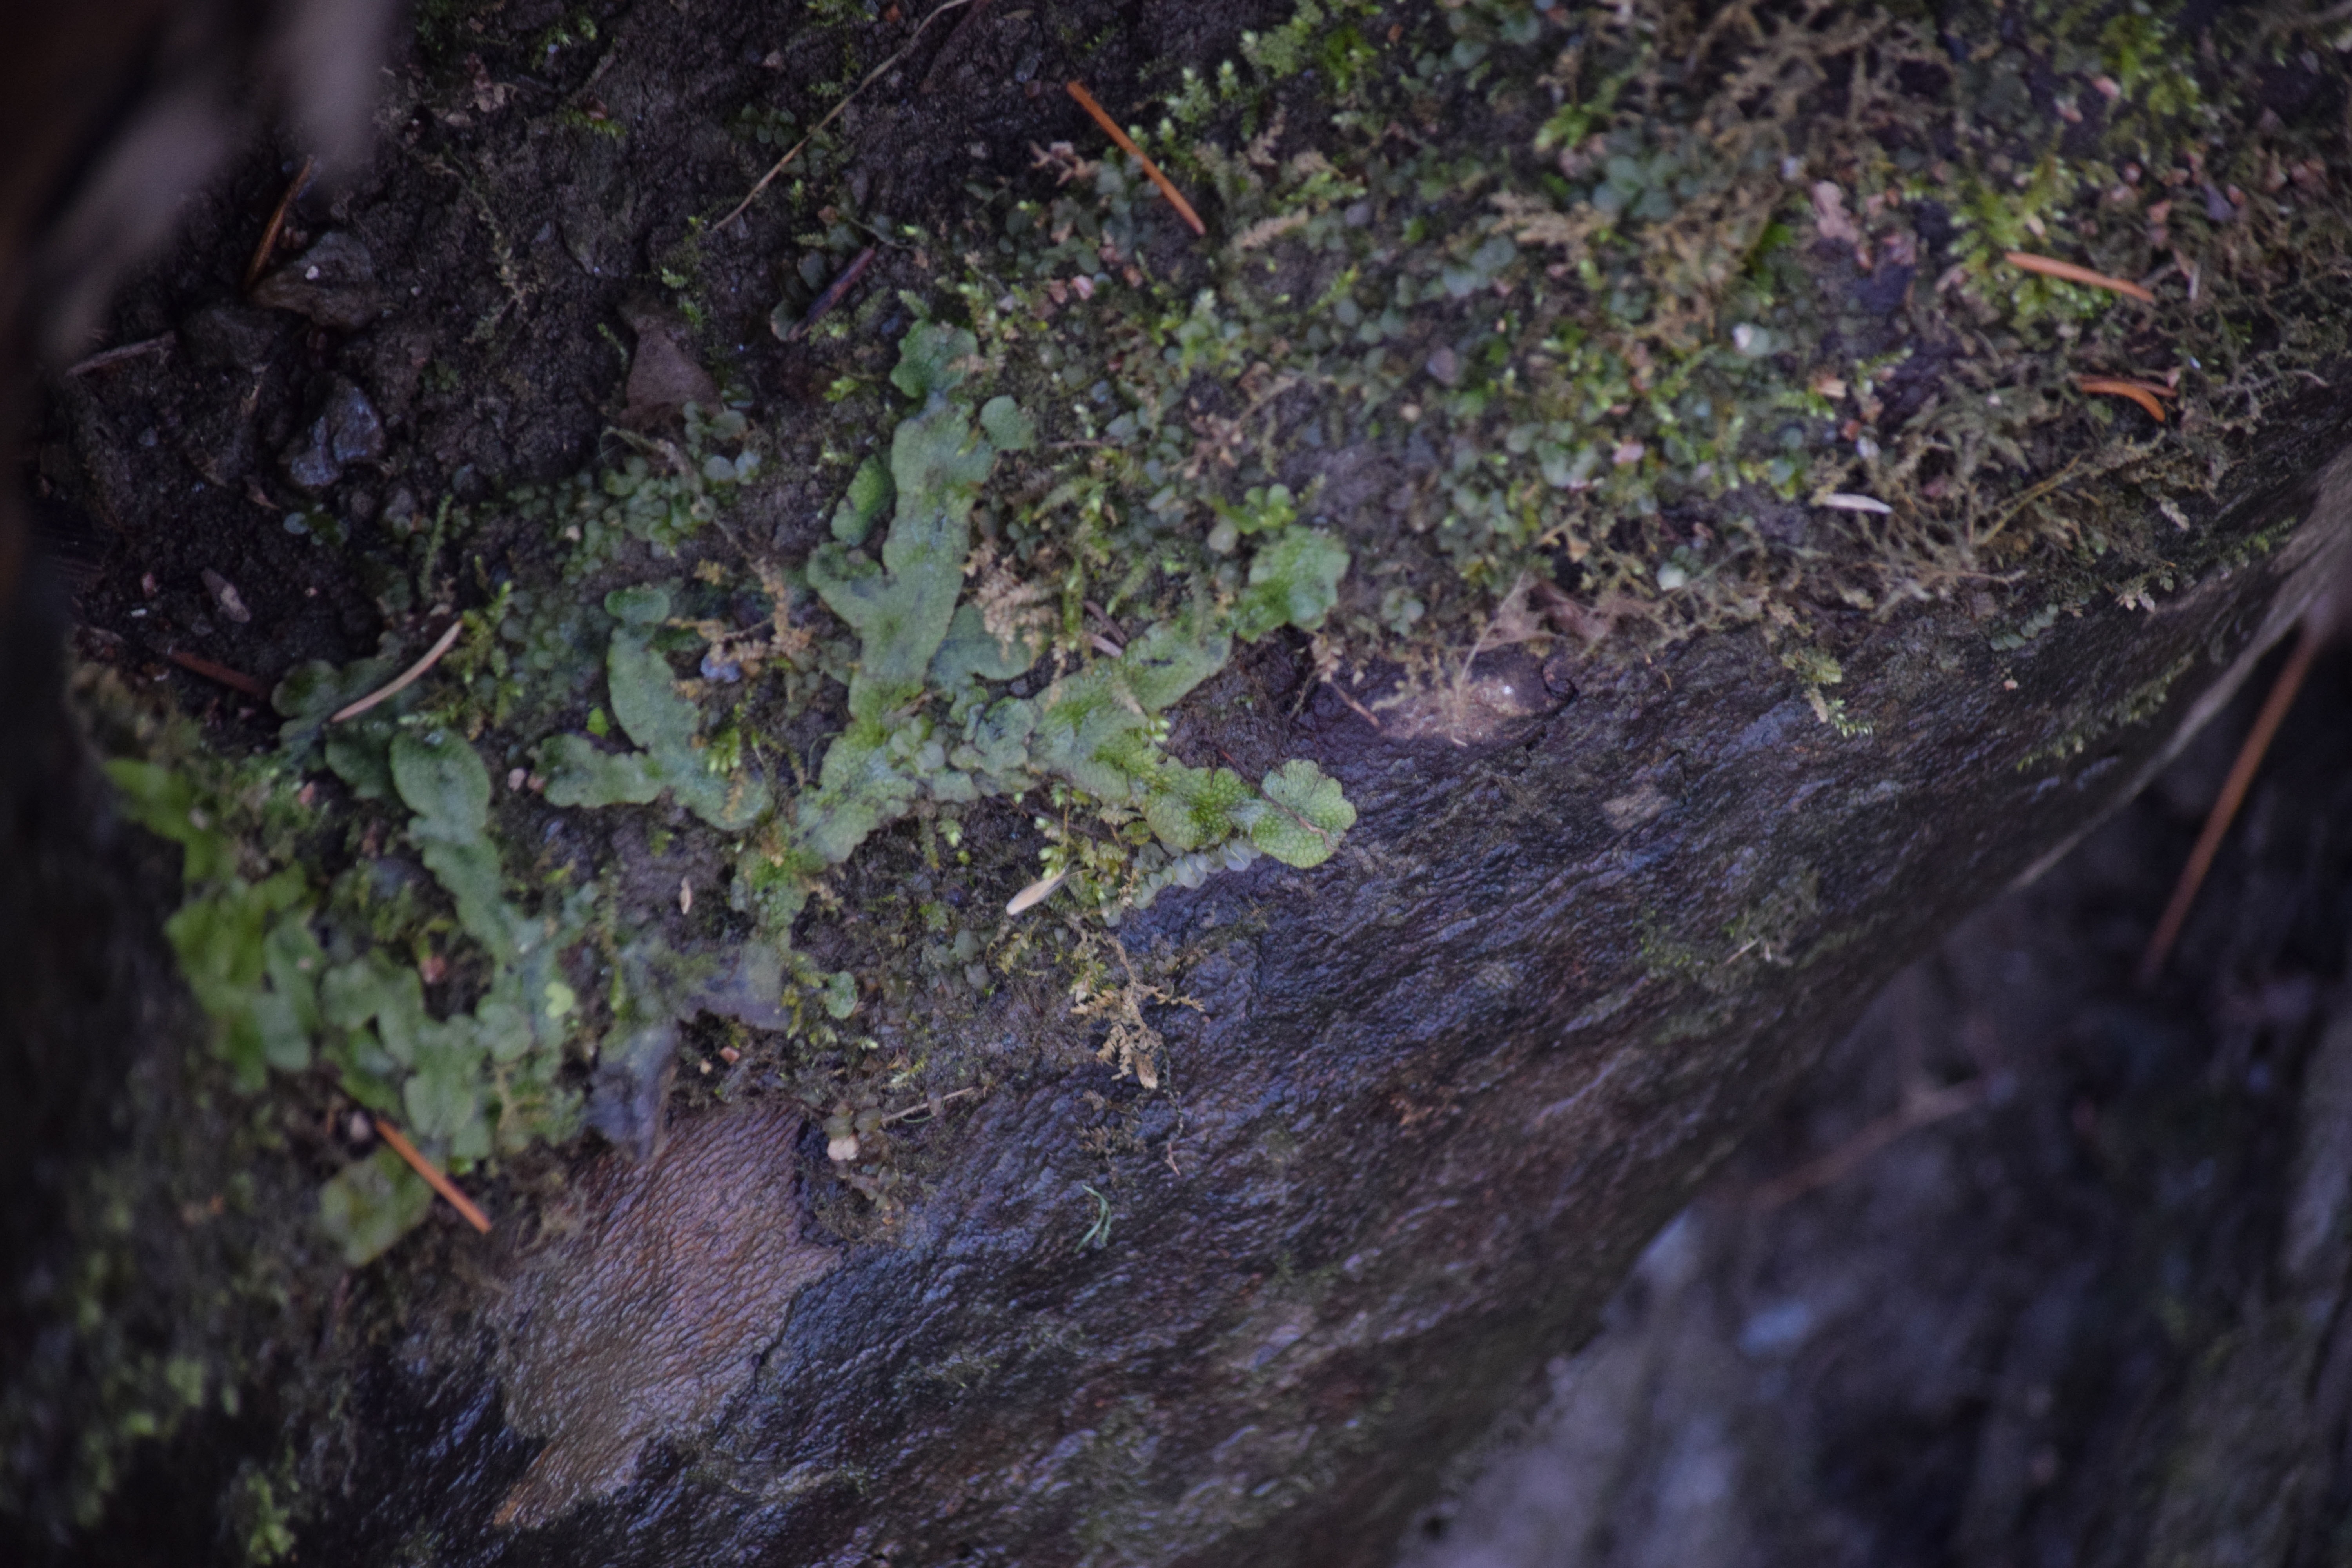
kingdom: Plantae
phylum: Marchantiophyta
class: Marchantiopsida
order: Marchantiales
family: Conocephalaceae
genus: Conocephalum
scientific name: Conocephalum salebrosum
